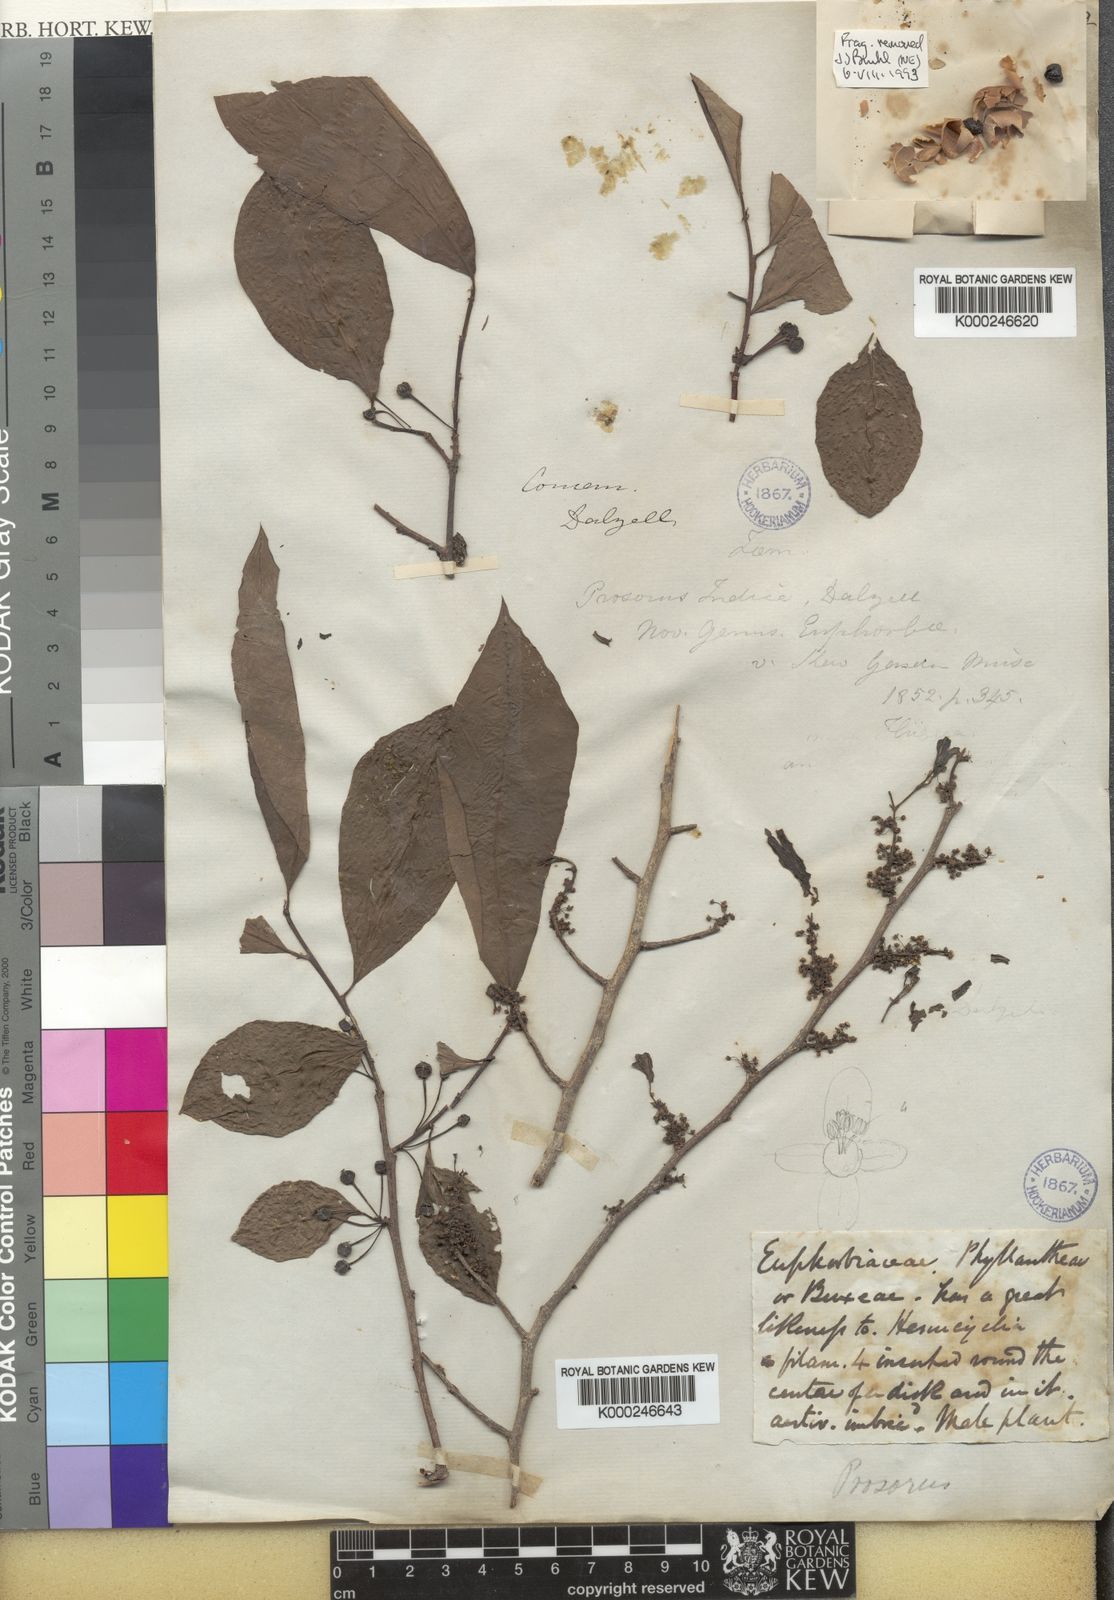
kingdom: Plantae
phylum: Tracheophyta
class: Magnoliopsida
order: Malpighiales
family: Phyllanthaceae
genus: Margaritaria
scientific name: Margaritaria indica
